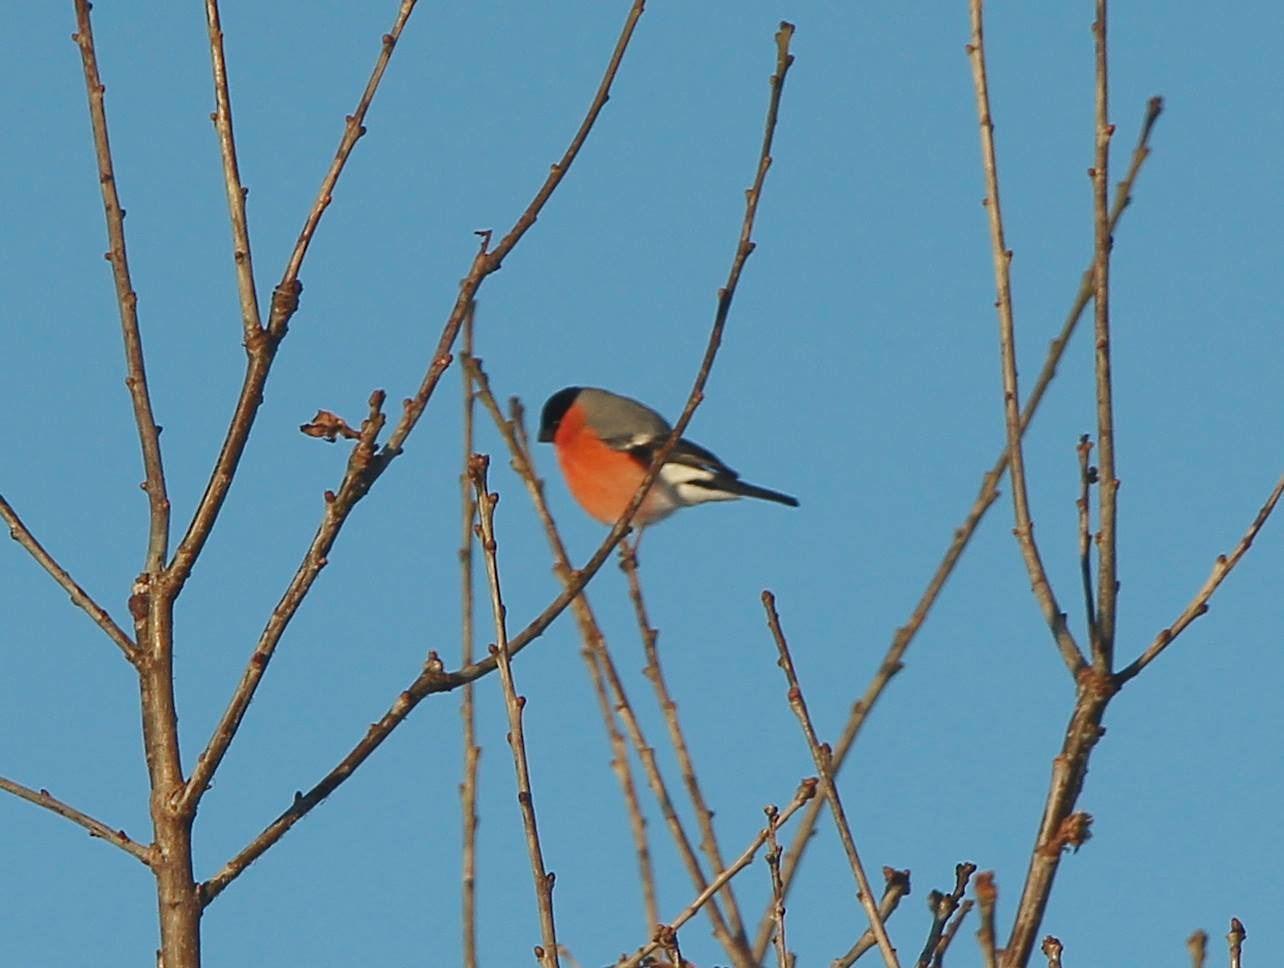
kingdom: Animalia
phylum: Chordata
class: Aves
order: Passeriformes
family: Fringillidae
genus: Pyrrhula
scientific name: Pyrrhula pyrrhula
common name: Dompap
